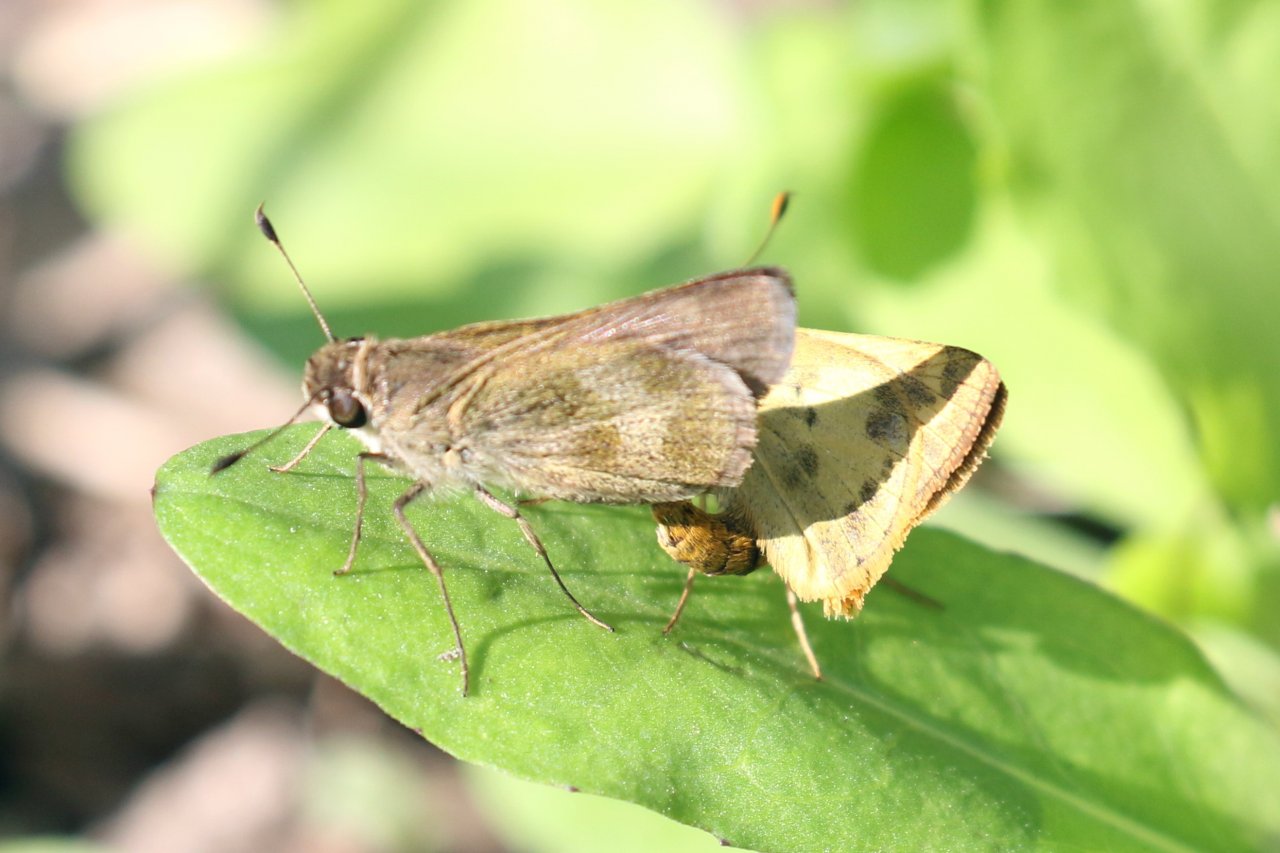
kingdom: Animalia
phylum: Arthropoda
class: Insecta
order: Lepidoptera
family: Hesperiidae
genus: Polites
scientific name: Polites vibex
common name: Whirlabout
